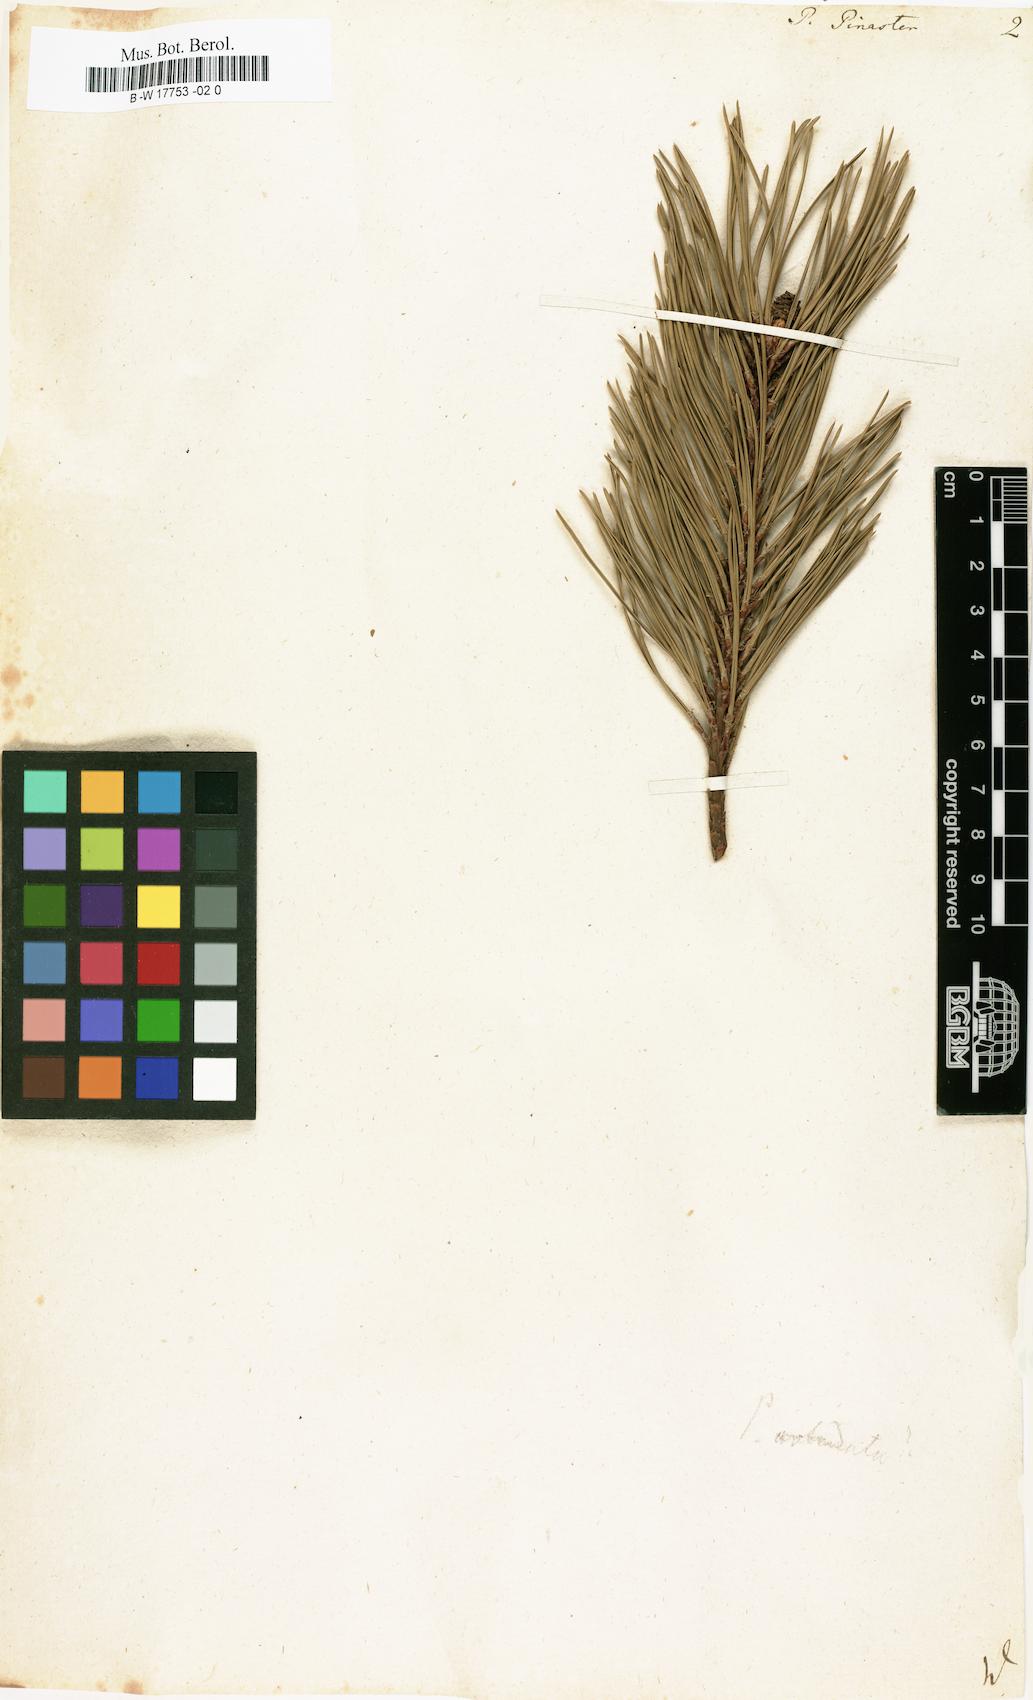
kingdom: Plantae
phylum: Tracheophyta
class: Pinopsida
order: Pinales
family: Pinaceae
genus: Pinus
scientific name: Pinus pinaster
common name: Maritime pine
